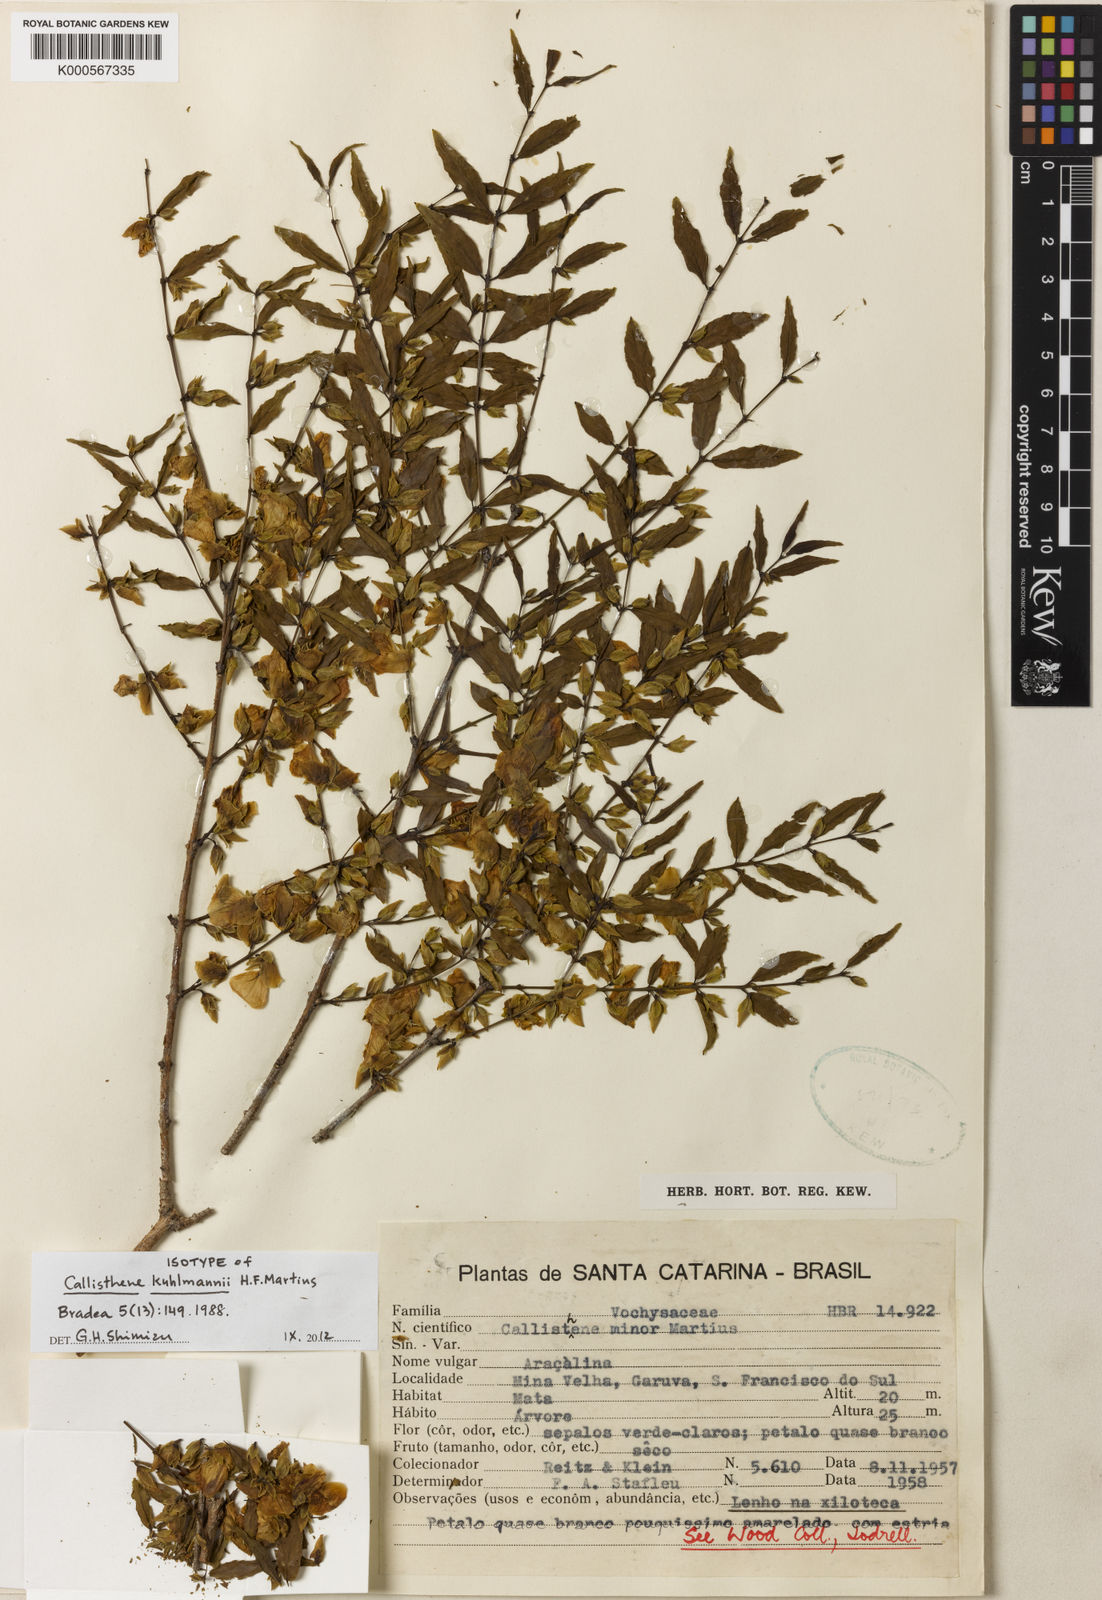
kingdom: Plantae
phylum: Tracheophyta
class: Magnoliopsida
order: Myrtales
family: Vochysiaceae
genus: Callisthene
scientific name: Callisthene minor
